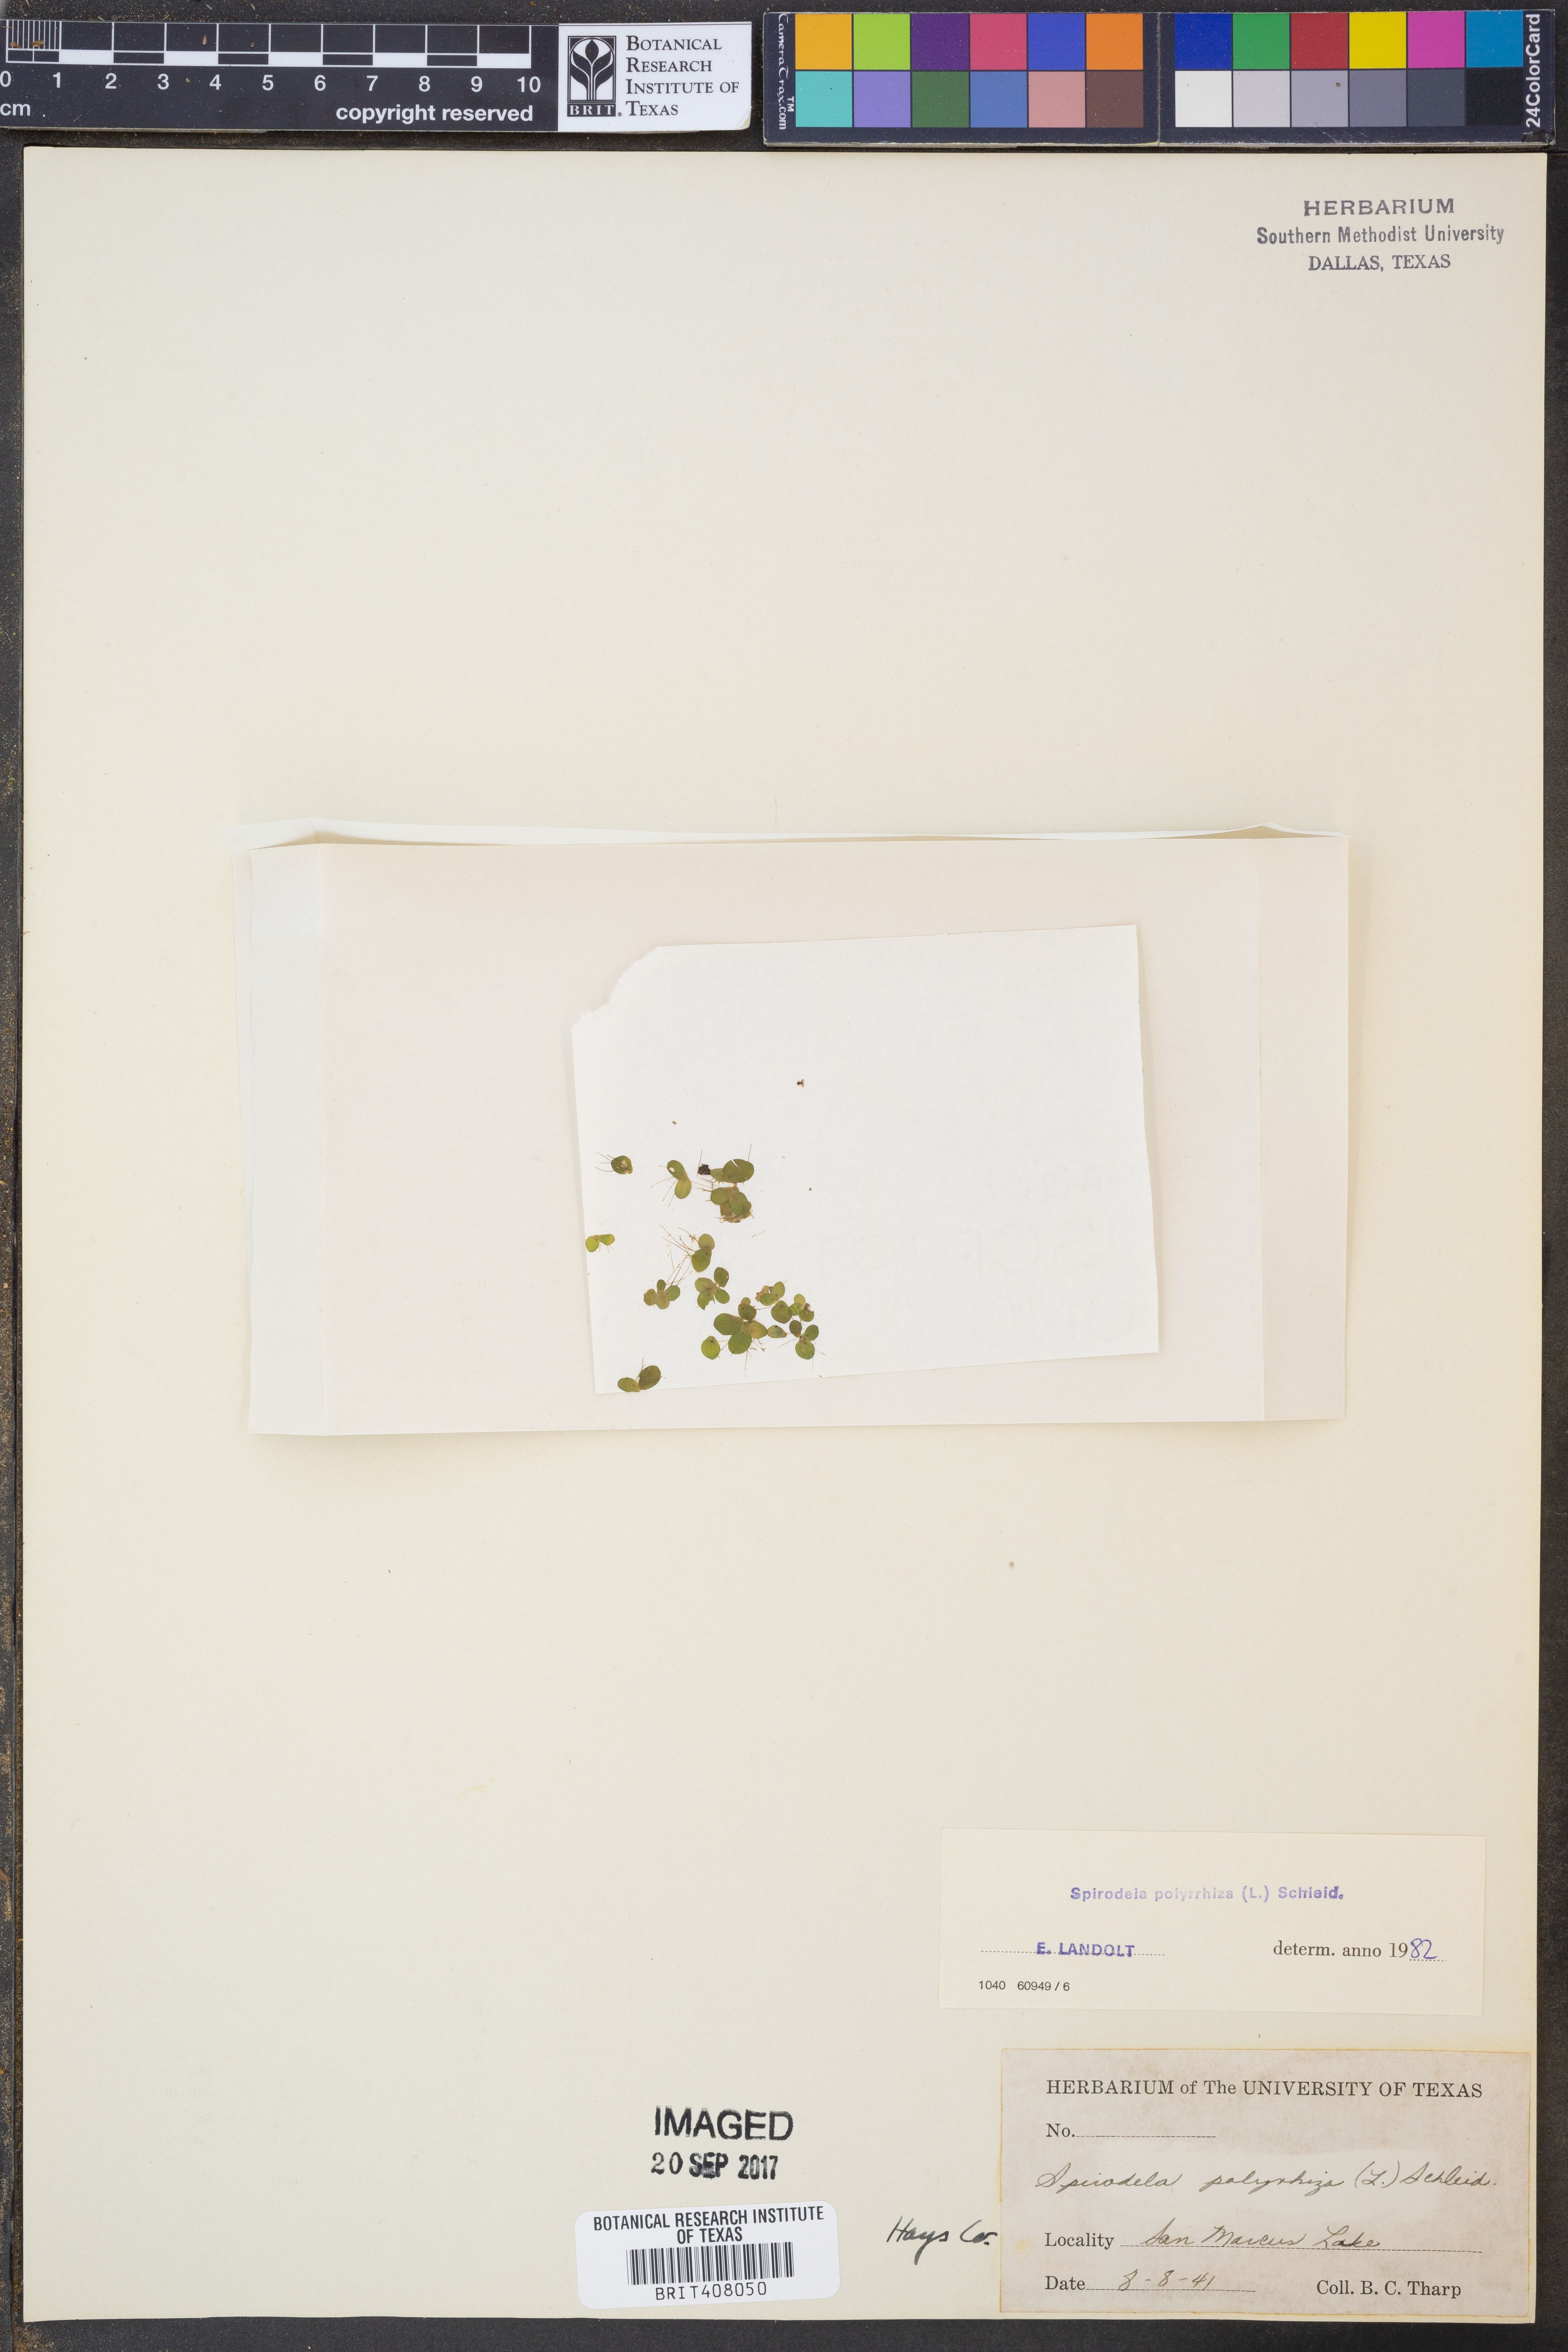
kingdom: Plantae
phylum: Tracheophyta
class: Liliopsida
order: Alismatales
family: Araceae
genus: Spirodela
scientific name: Spirodela polyrhiza
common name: Great duckweed
